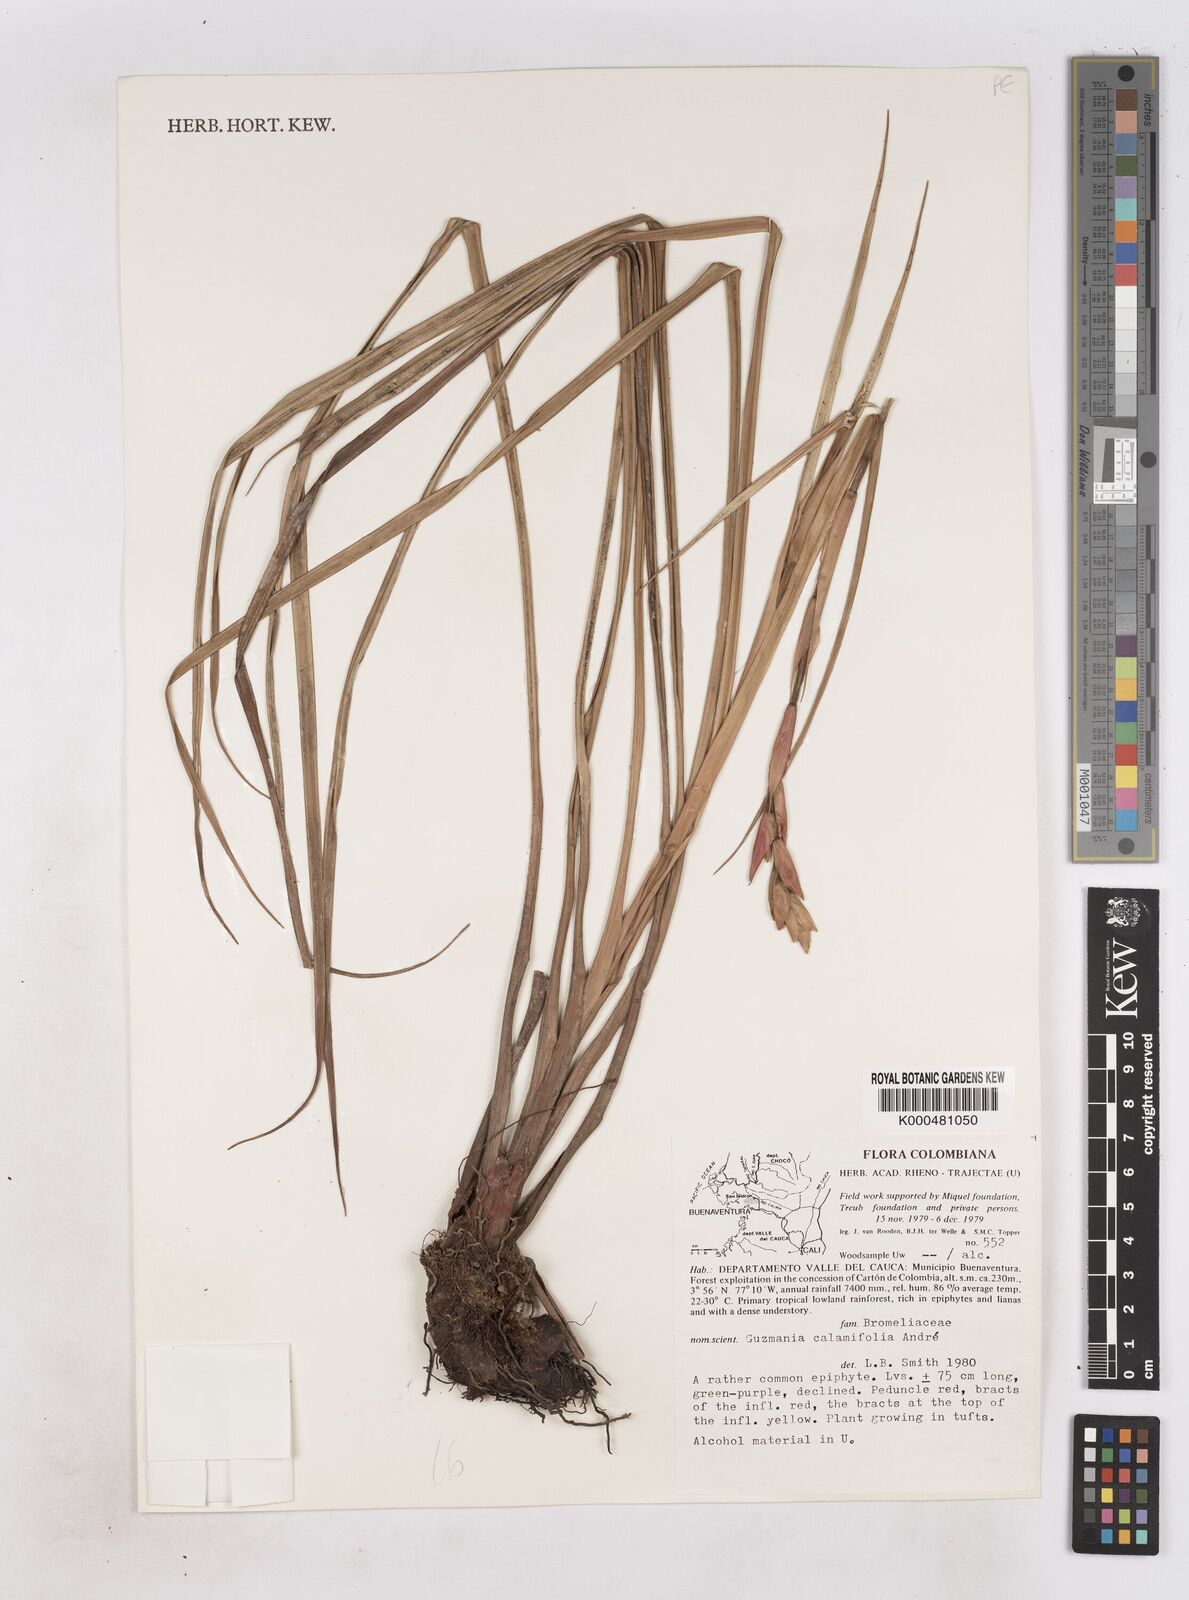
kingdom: Plantae
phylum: Tracheophyta
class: Liliopsida
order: Poales
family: Bromeliaceae
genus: Guzmania
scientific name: Guzmania
